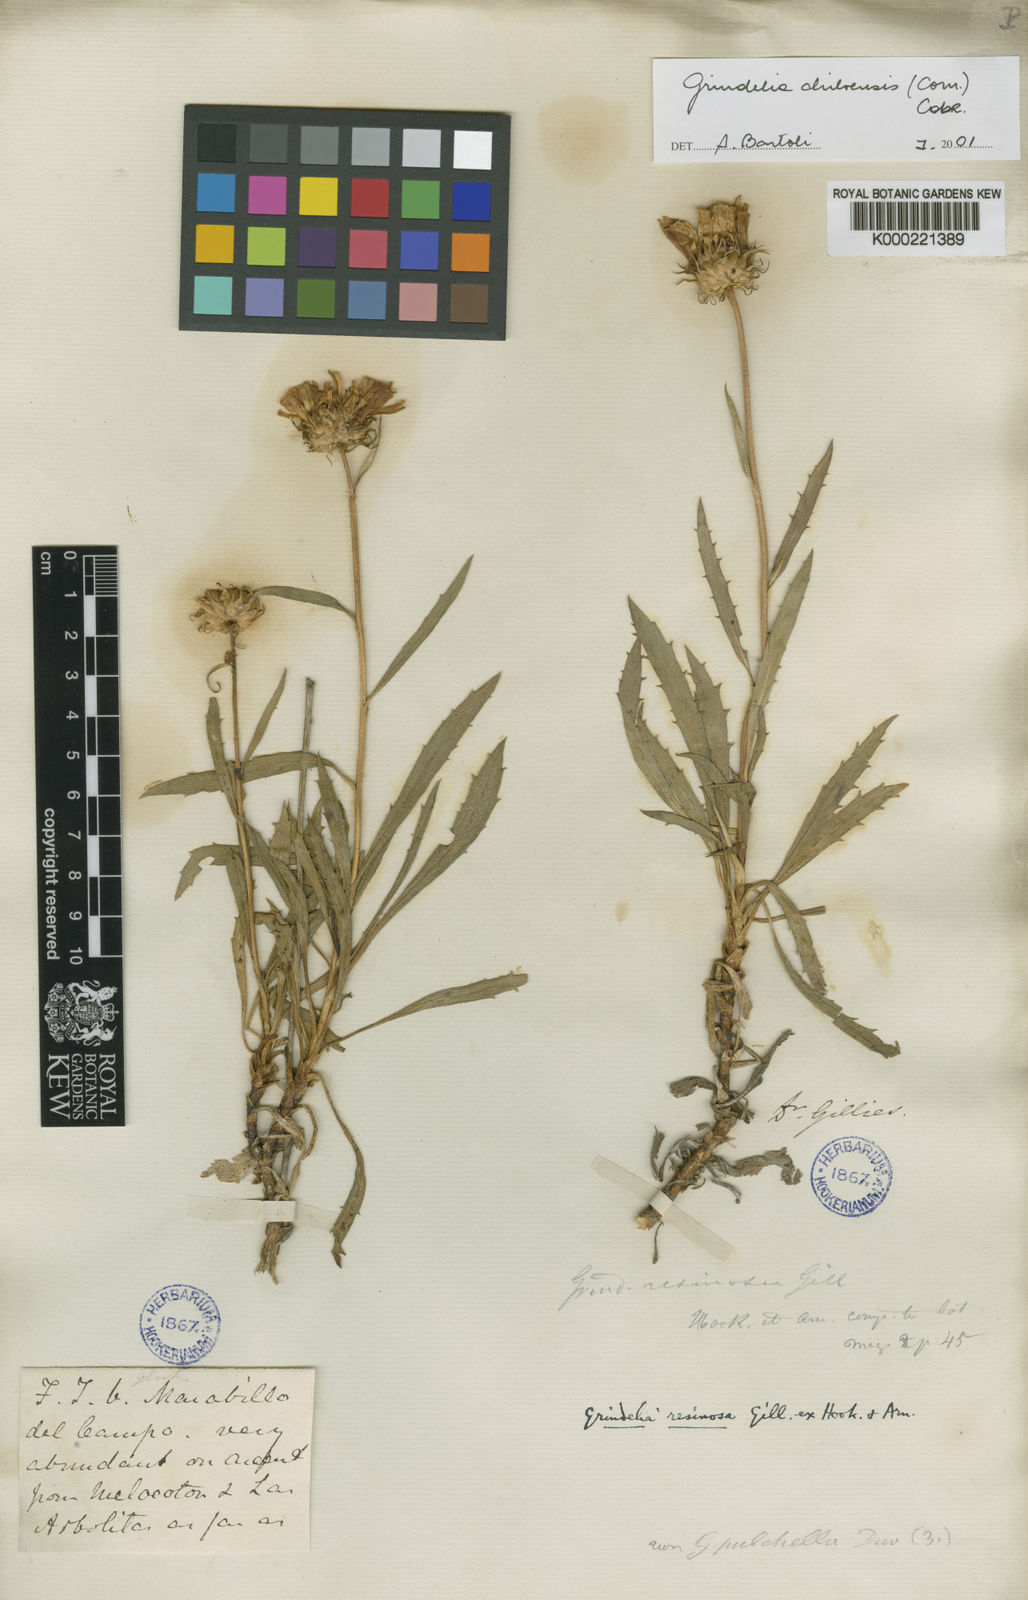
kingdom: Plantae
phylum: Tracheophyta
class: Magnoliopsida
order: Asterales
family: Asteraceae
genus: Grindelia
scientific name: Grindelia chiloensis
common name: Shrubby gumweed
